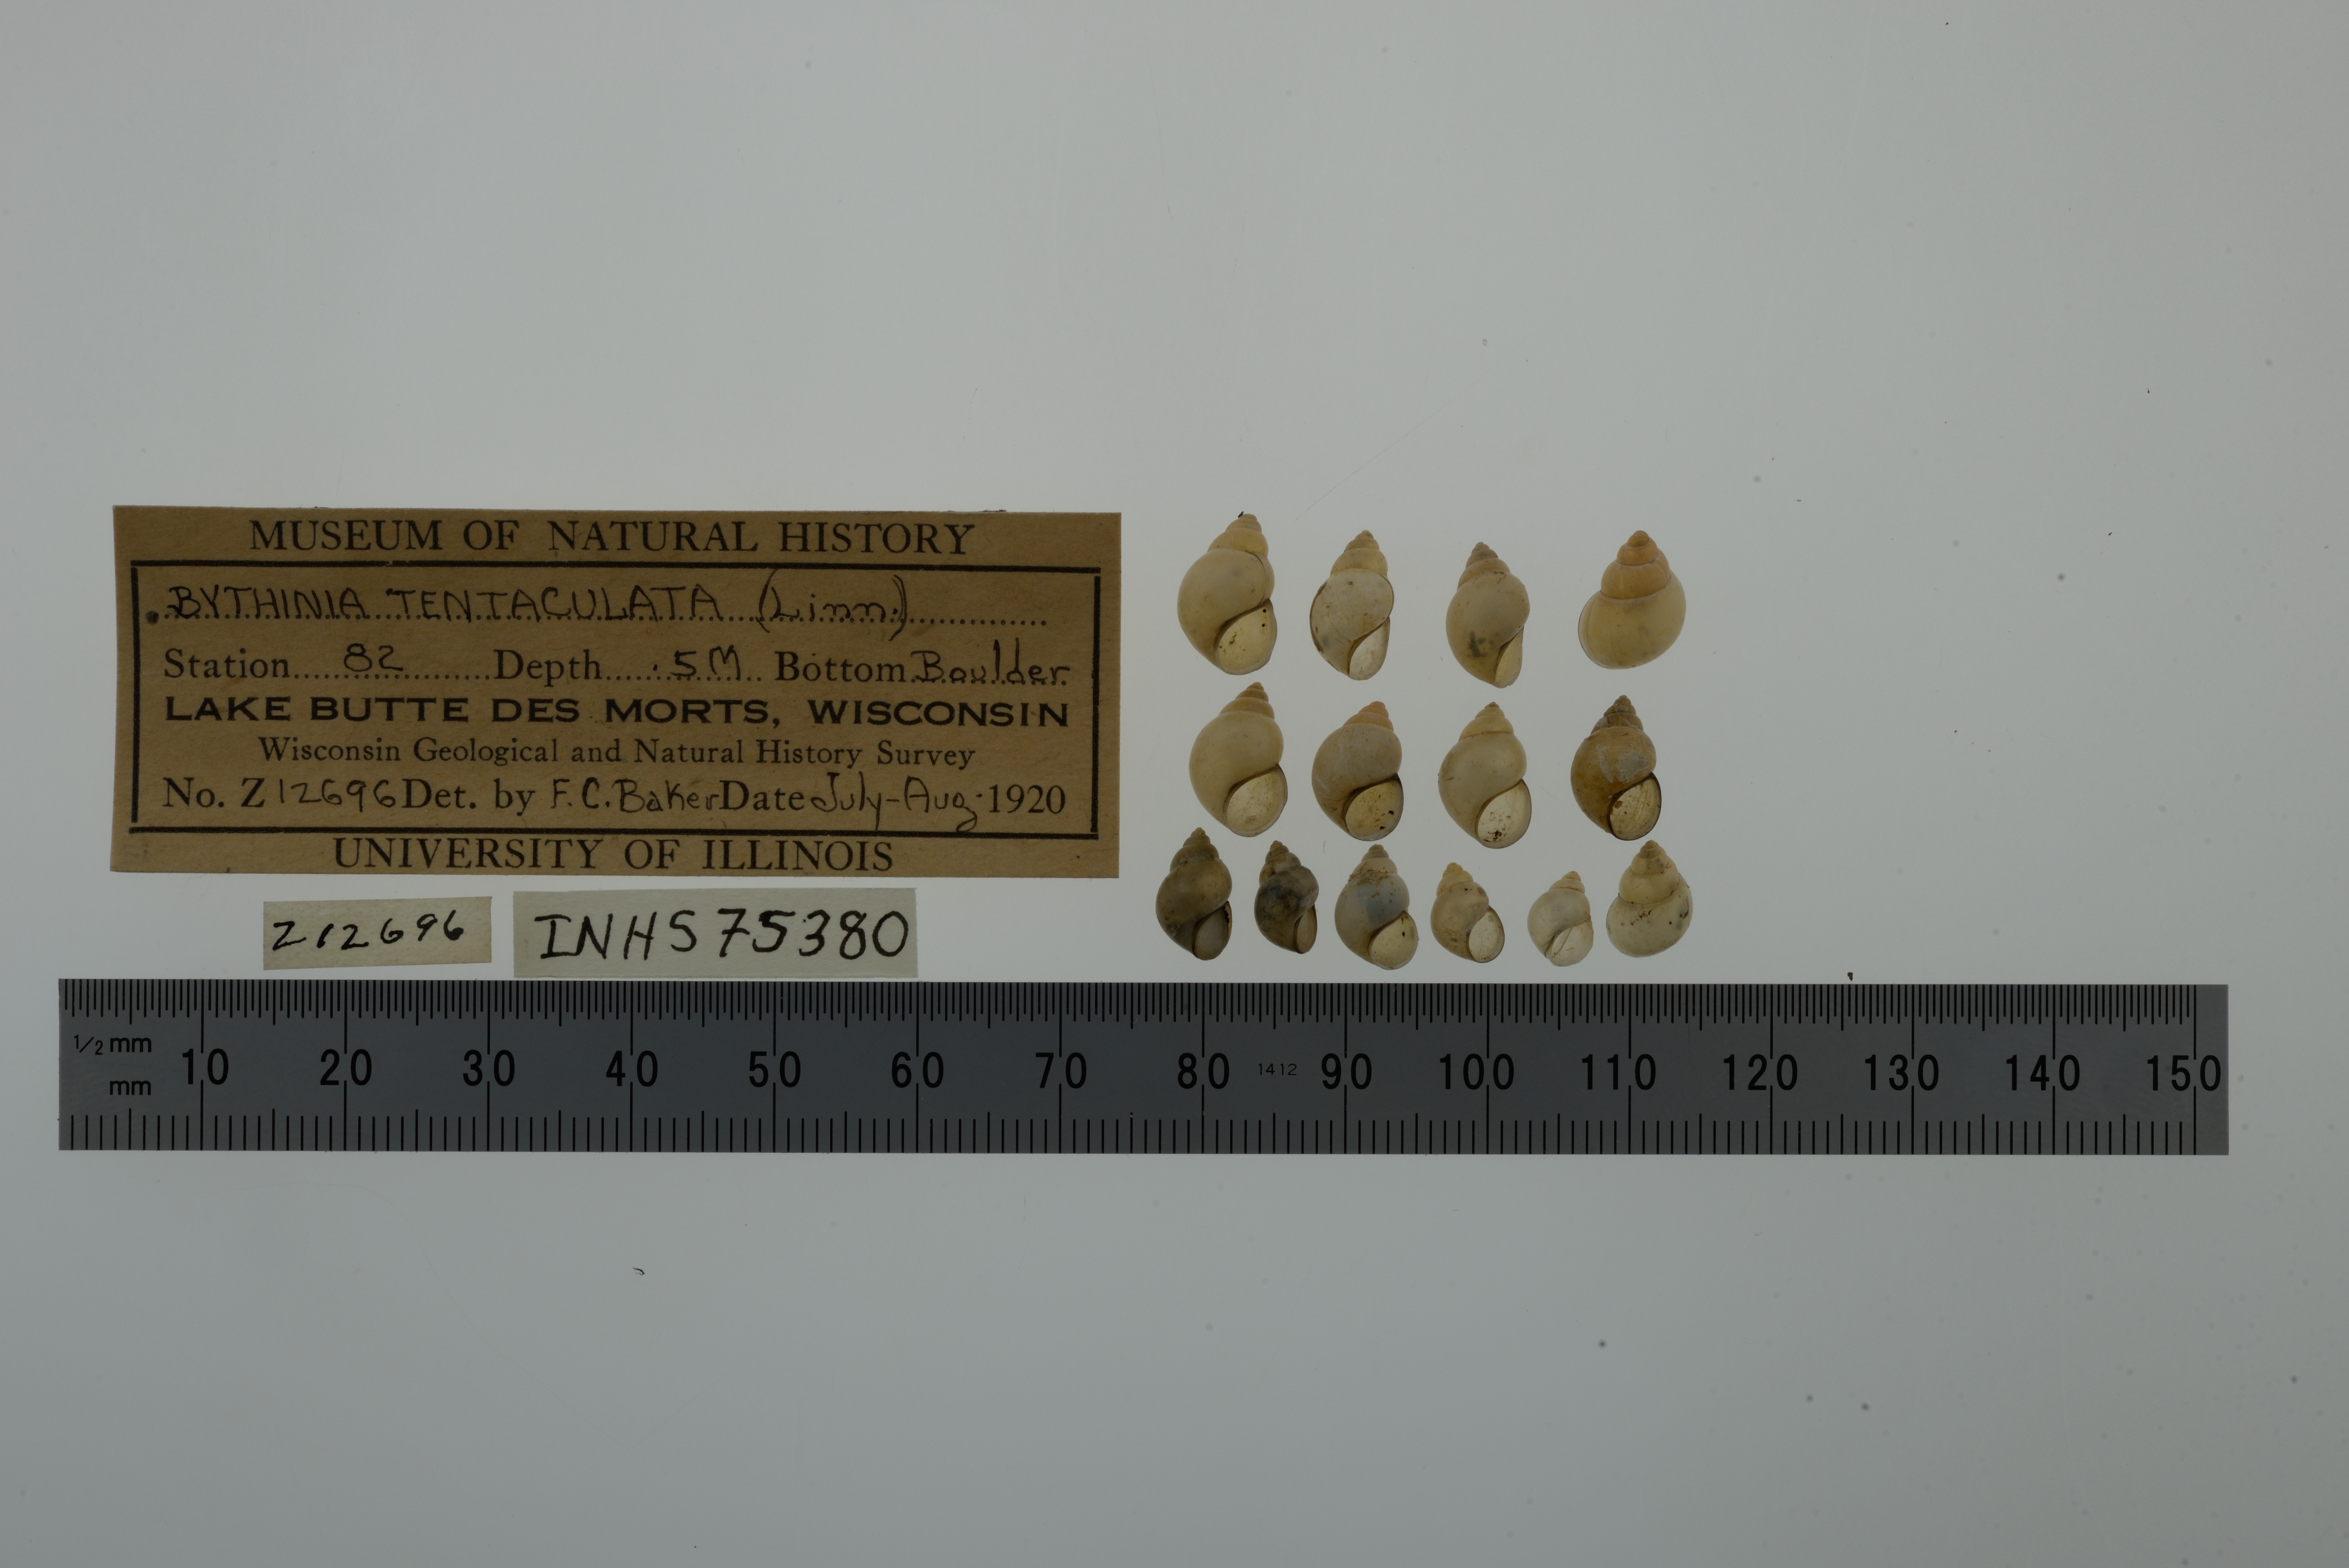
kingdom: Animalia
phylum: Mollusca
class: Gastropoda
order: Littorinimorpha
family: Bithyniidae
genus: Bithynia
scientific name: Bithynia tentaculata
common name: Common bithynia
